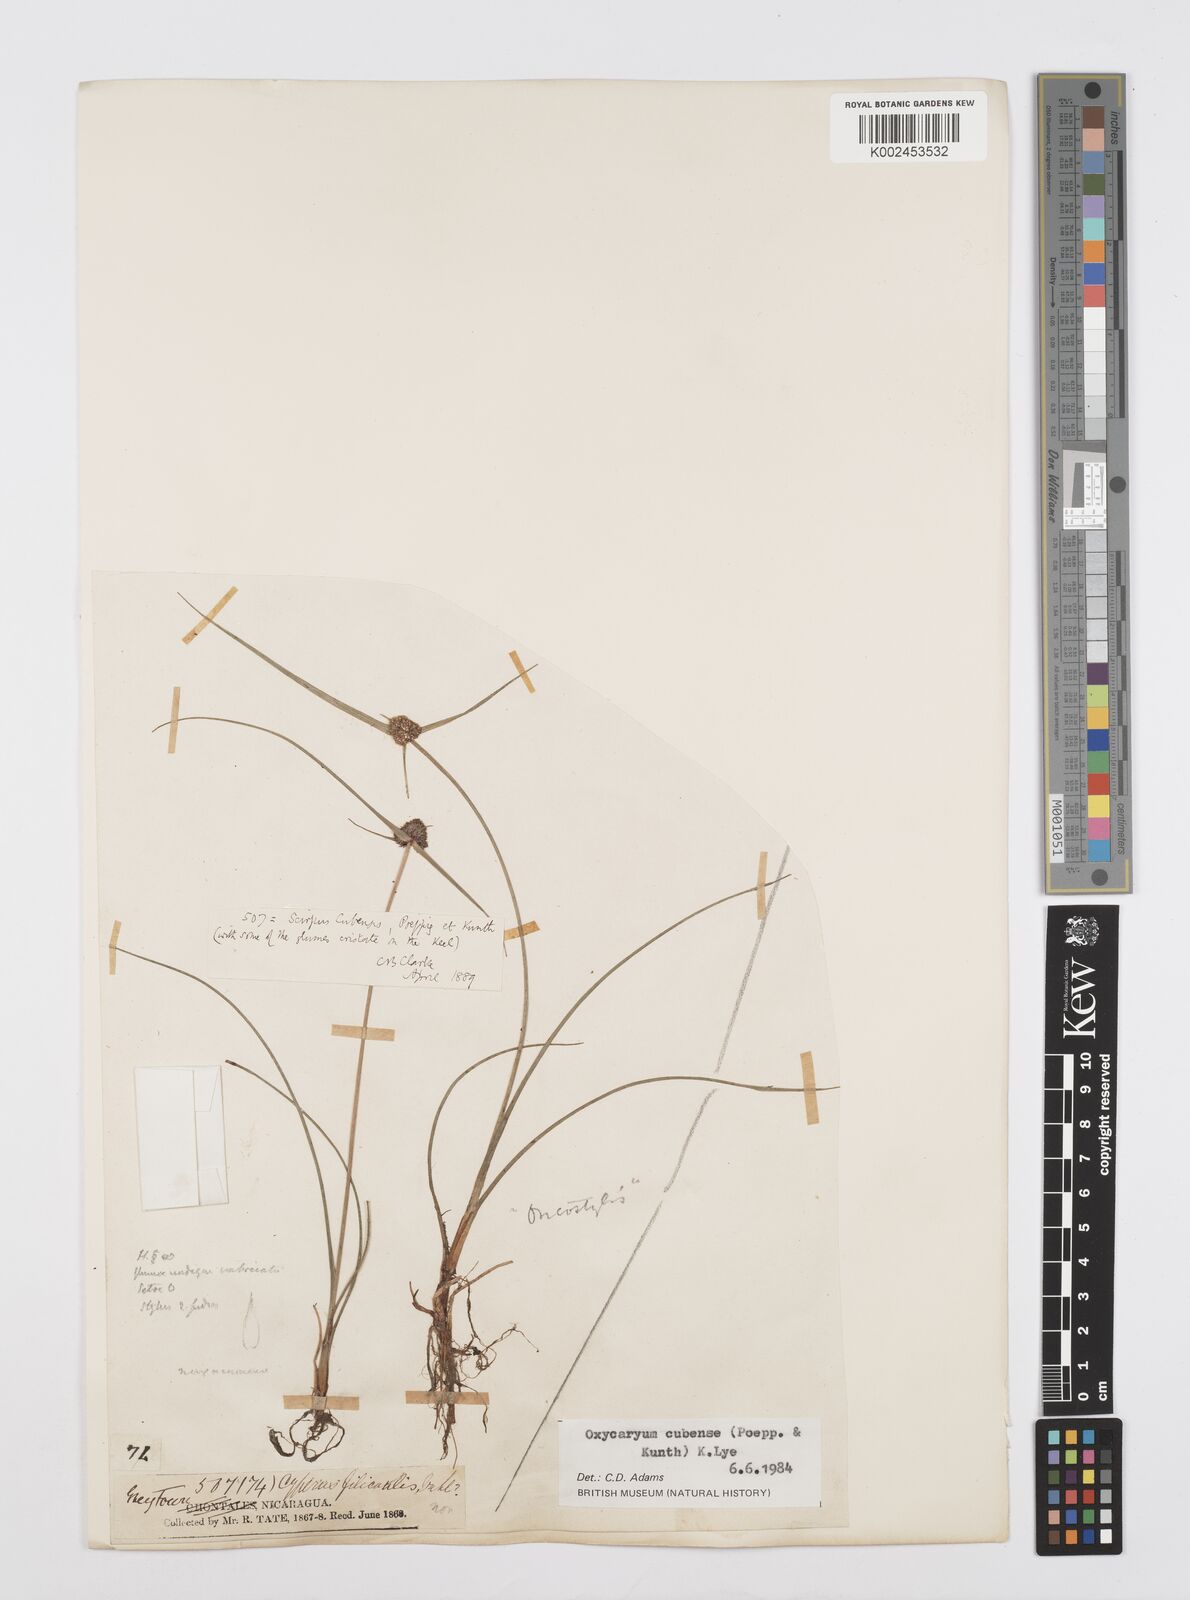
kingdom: Plantae
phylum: Tracheophyta
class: Liliopsida
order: Poales
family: Cyperaceae
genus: Cyperus
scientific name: Cyperus elegans
